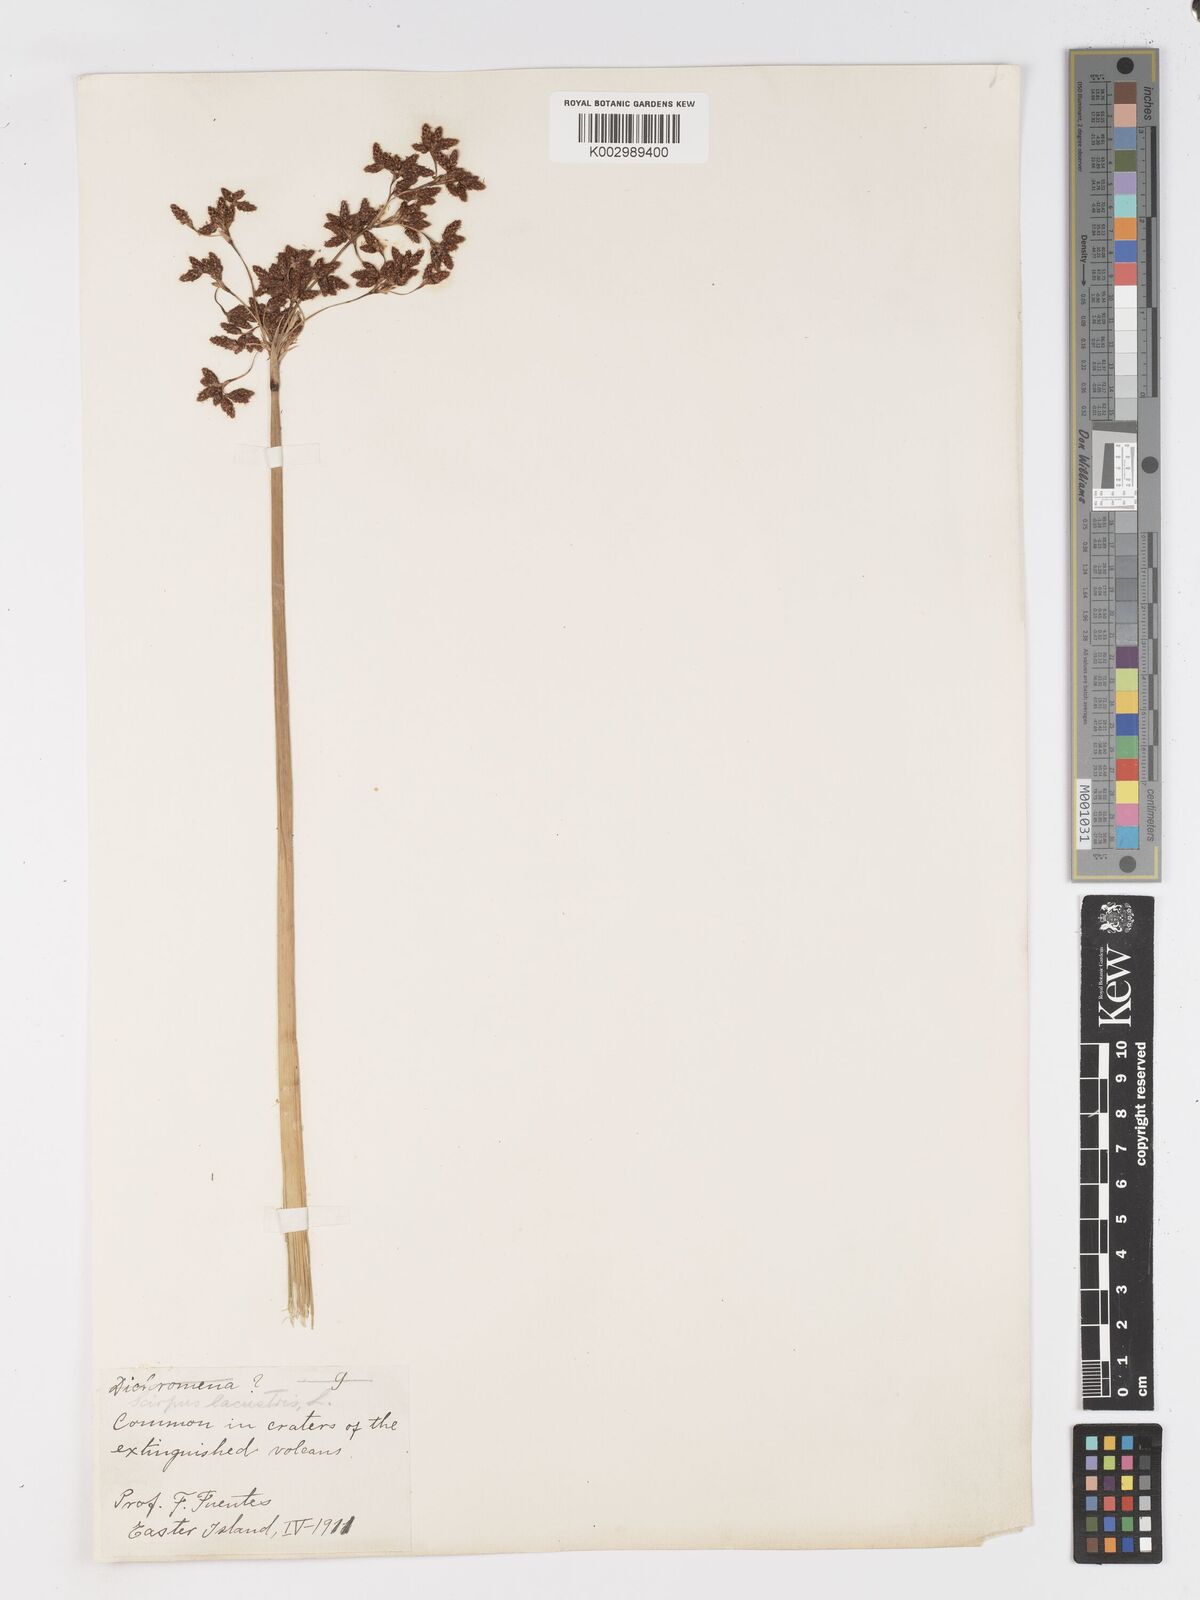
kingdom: Plantae
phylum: Tracheophyta
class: Liliopsida
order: Poales
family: Cyperaceae
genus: Schoenoplectus
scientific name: Schoenoplectus californicus
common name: California bulrush
